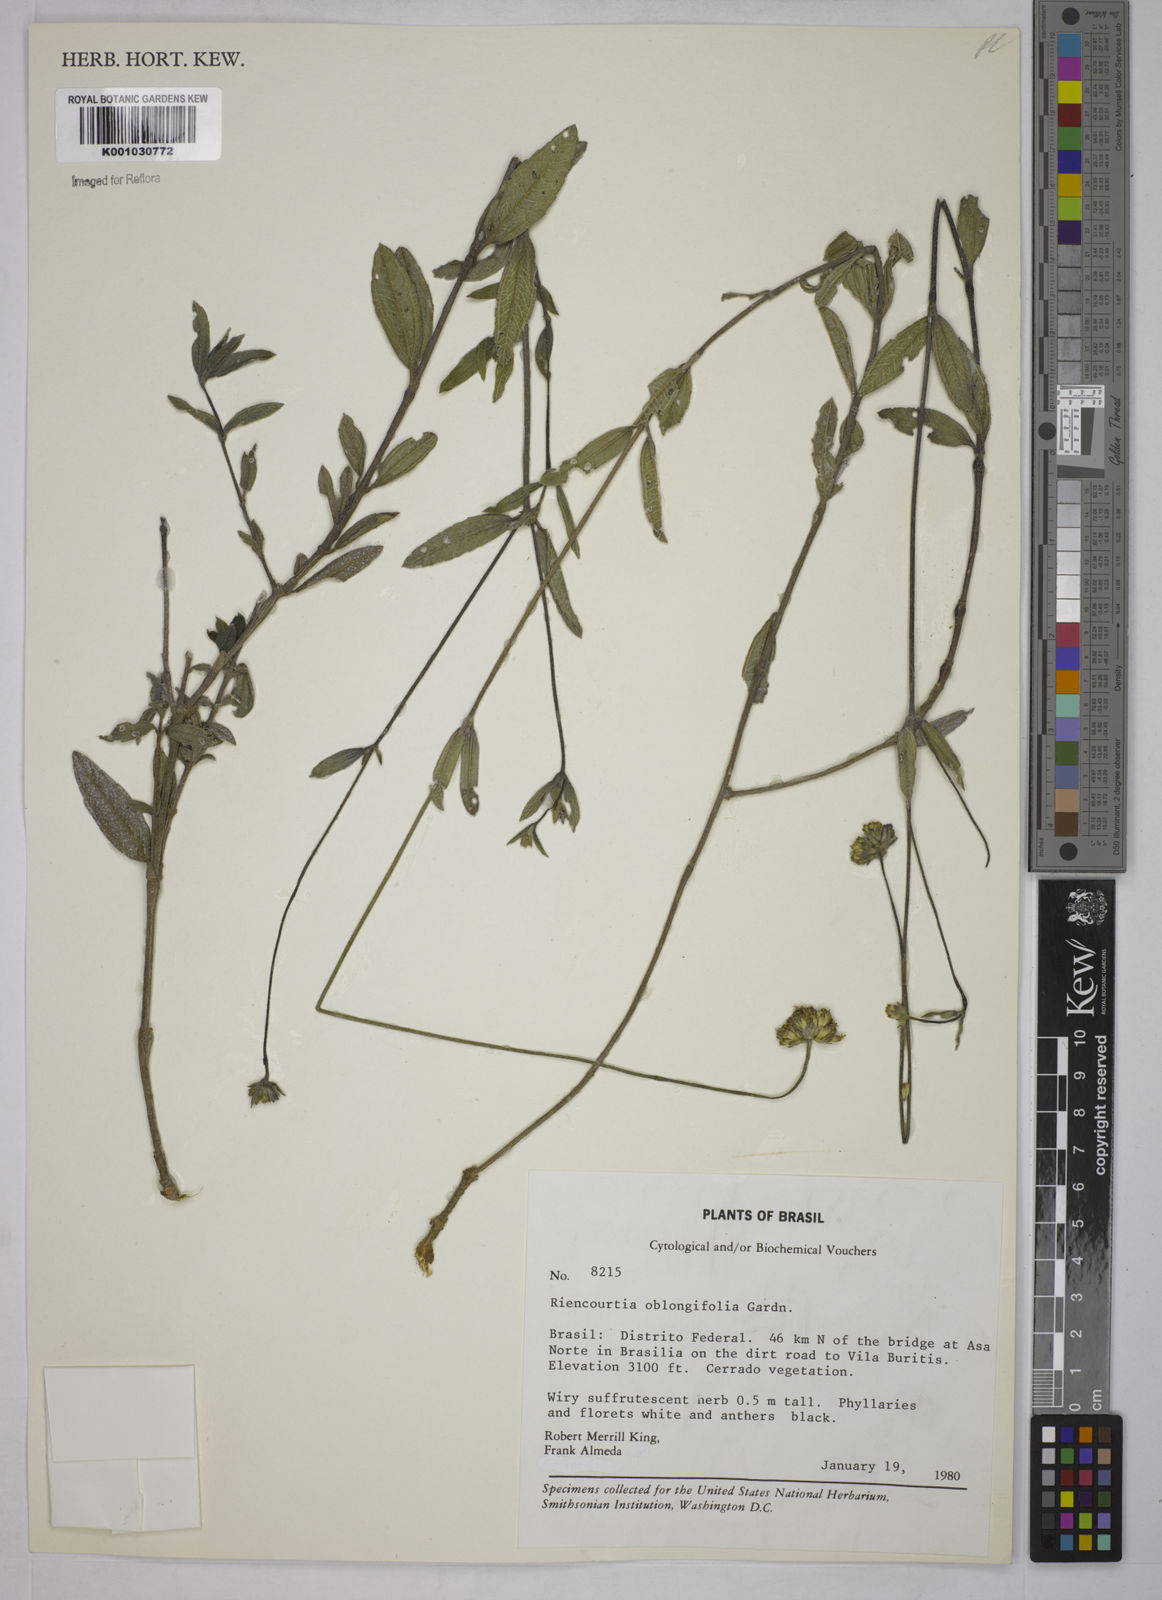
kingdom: Plantae
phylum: Tracheophyta
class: Magnoliopsida
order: Asterales
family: Asteraceae
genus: Riencourtia
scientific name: Riencourtia oblongifolia
